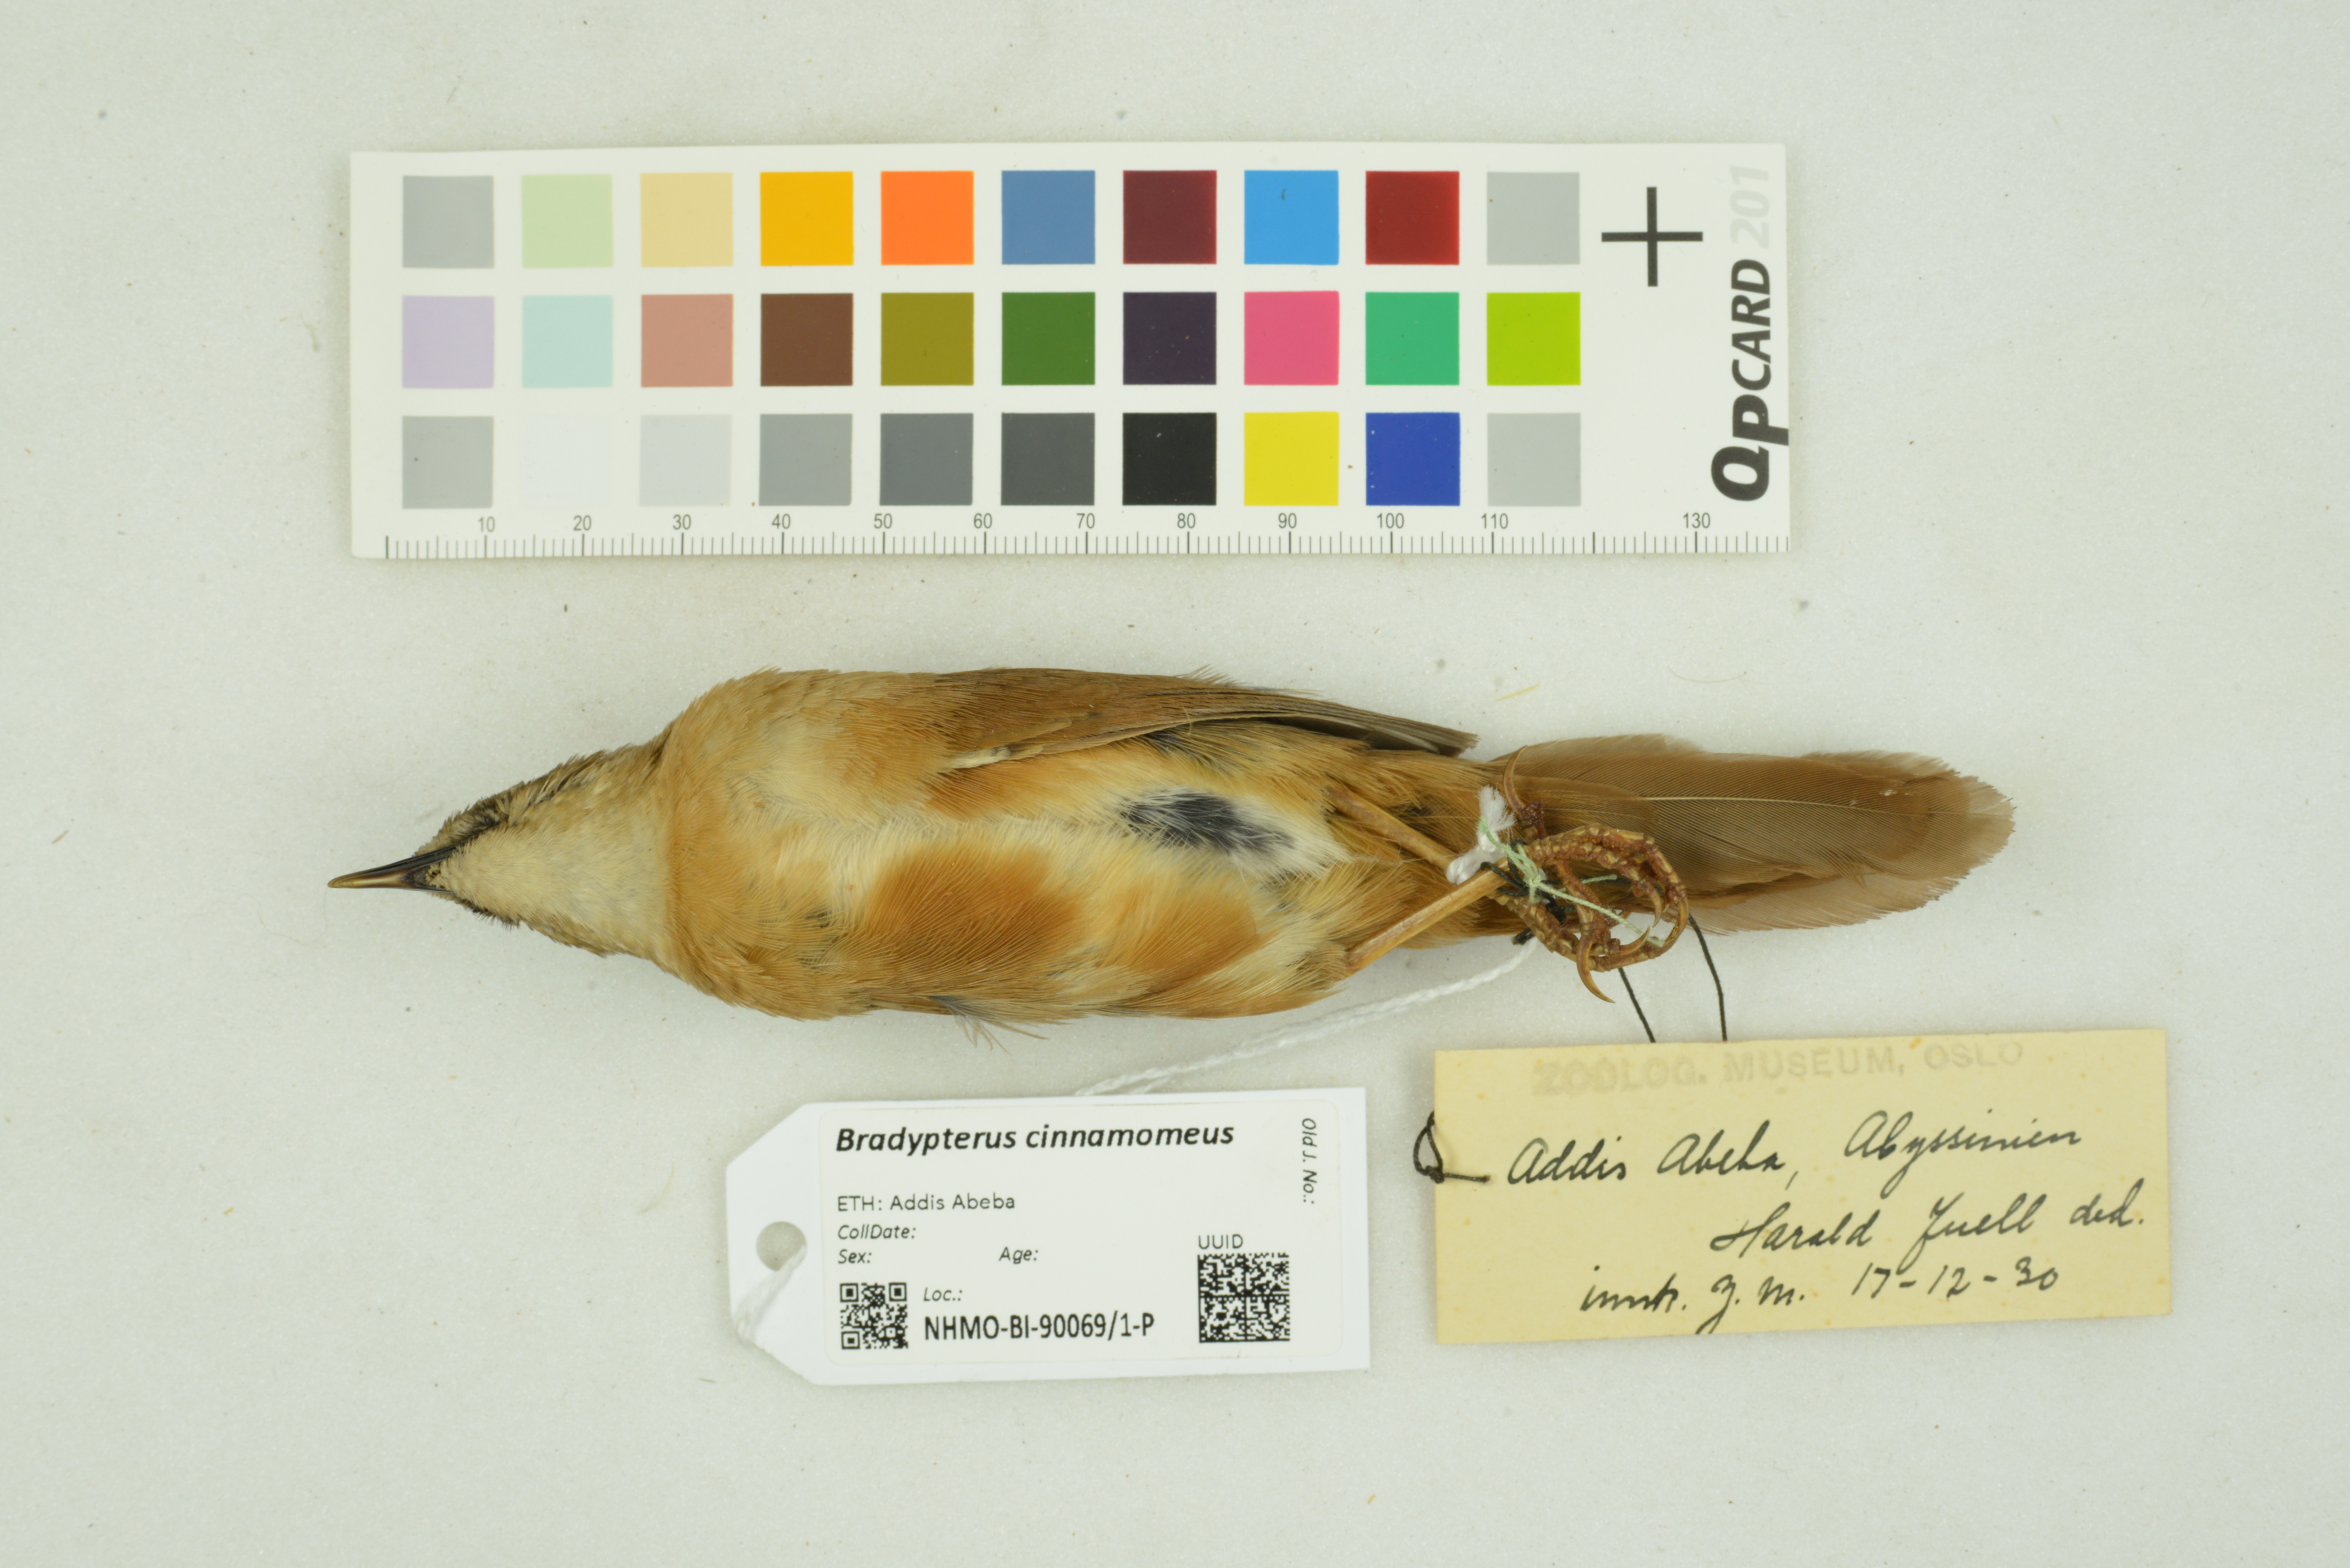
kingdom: Animalia
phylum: Chordata
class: Aves
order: Passeriformes
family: Locustellidae
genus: Bradypterus
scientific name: Bradypterus cinnamomeus
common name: Cinnamon bracken warbler
